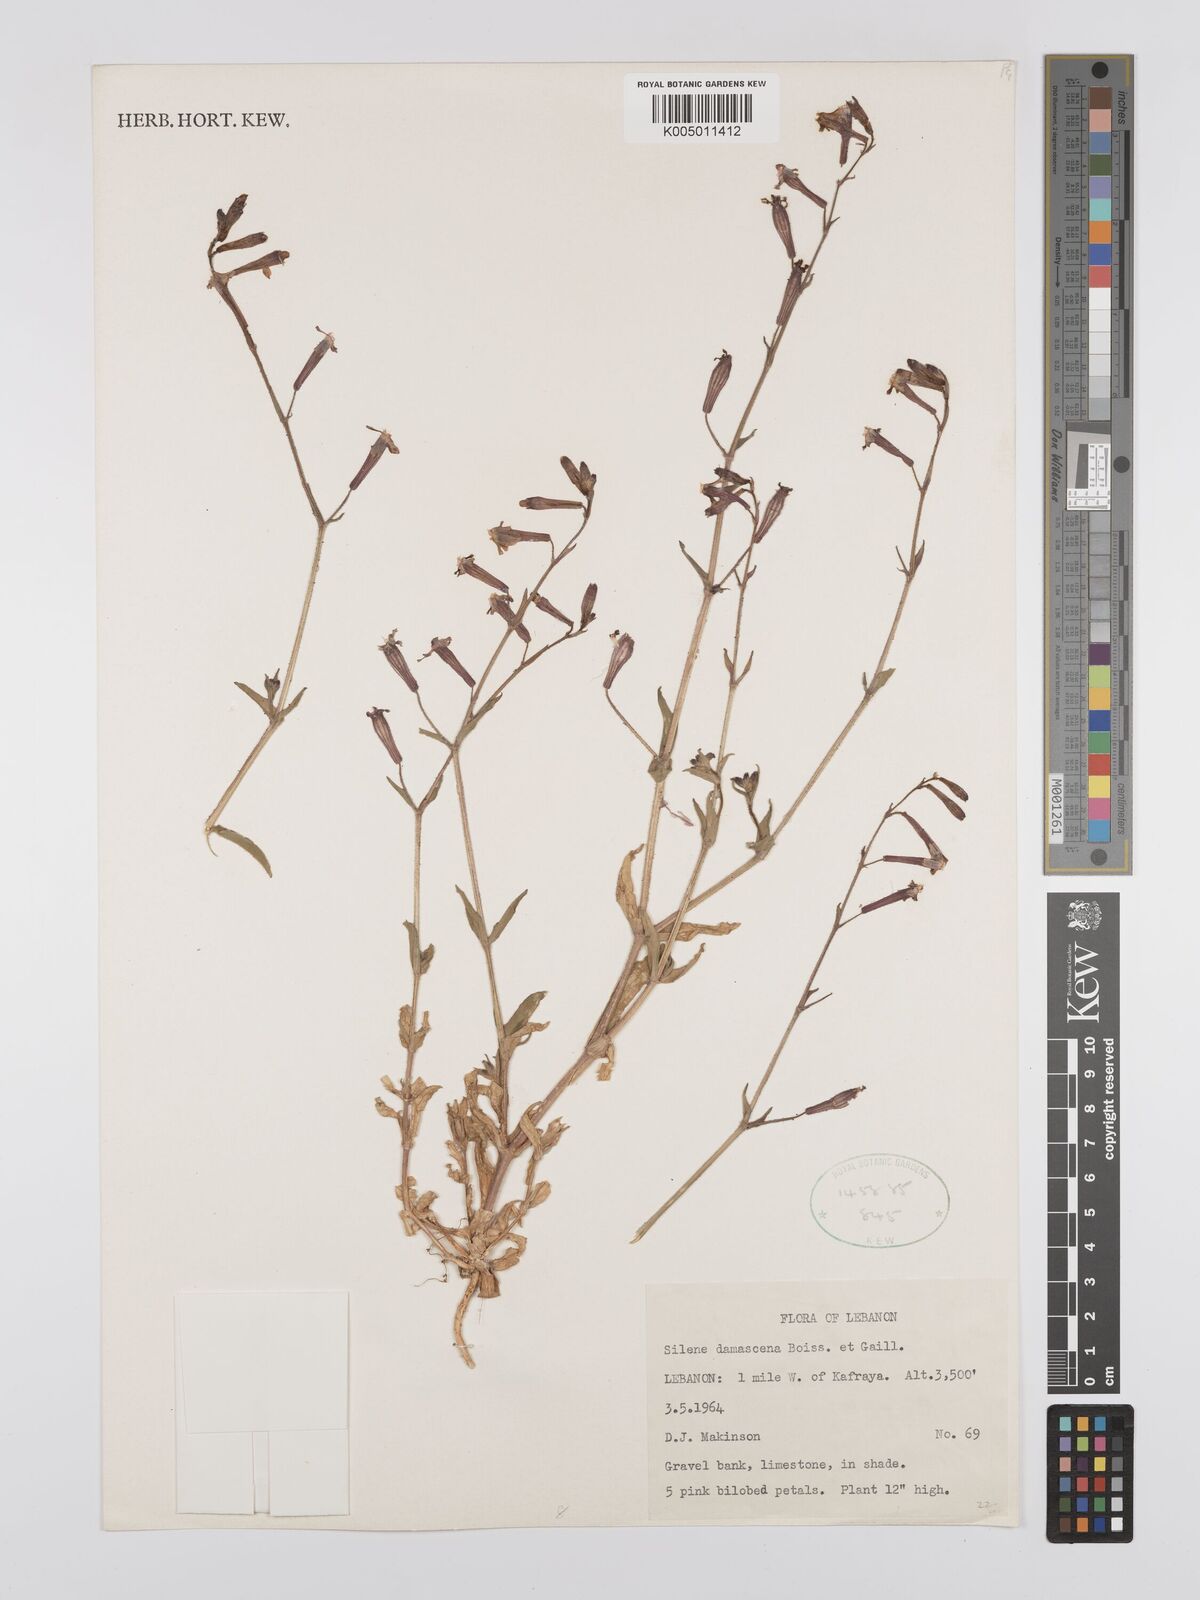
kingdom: Plantae
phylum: Tracheophyta
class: Magnoliopsida
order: Caryophyllales
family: Caryophyllaceae
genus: Silene
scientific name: Silene damascena
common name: Damascus catchfly
